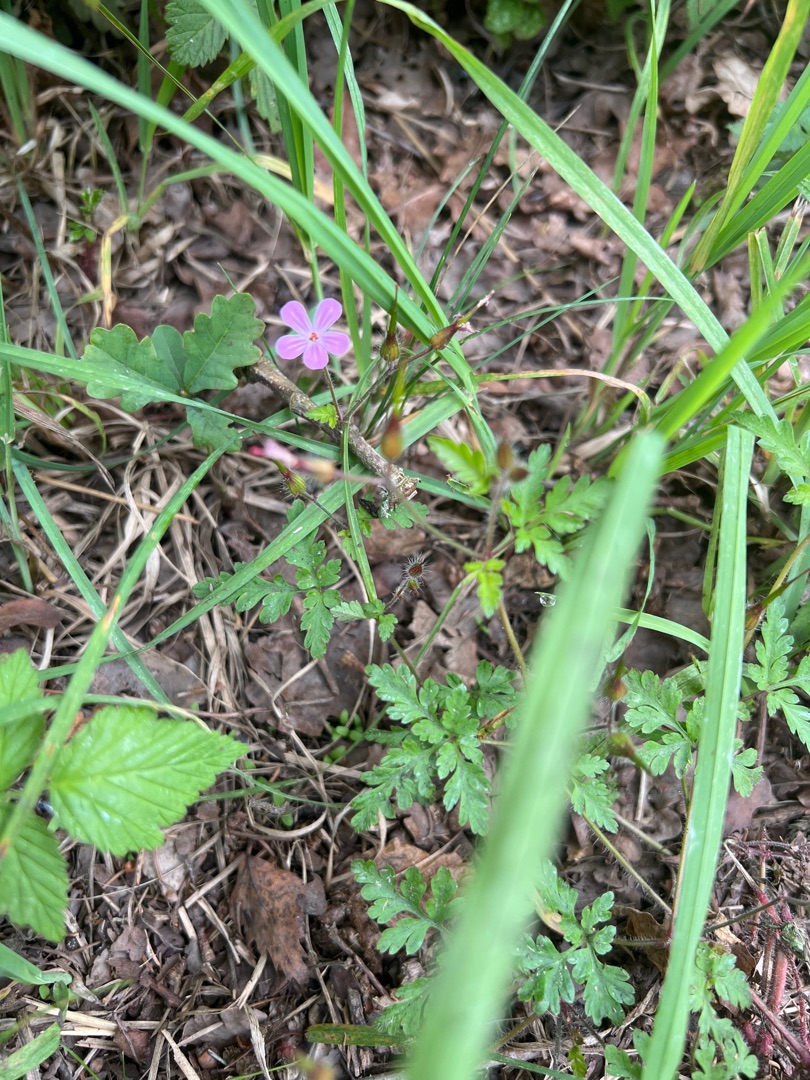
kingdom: Plantae
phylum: Tracheophyta
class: Magnoliopsida
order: Geraniales
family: Geraniaceae
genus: Geranium
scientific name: Geranium robertianum
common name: Stinkende storkenæb
